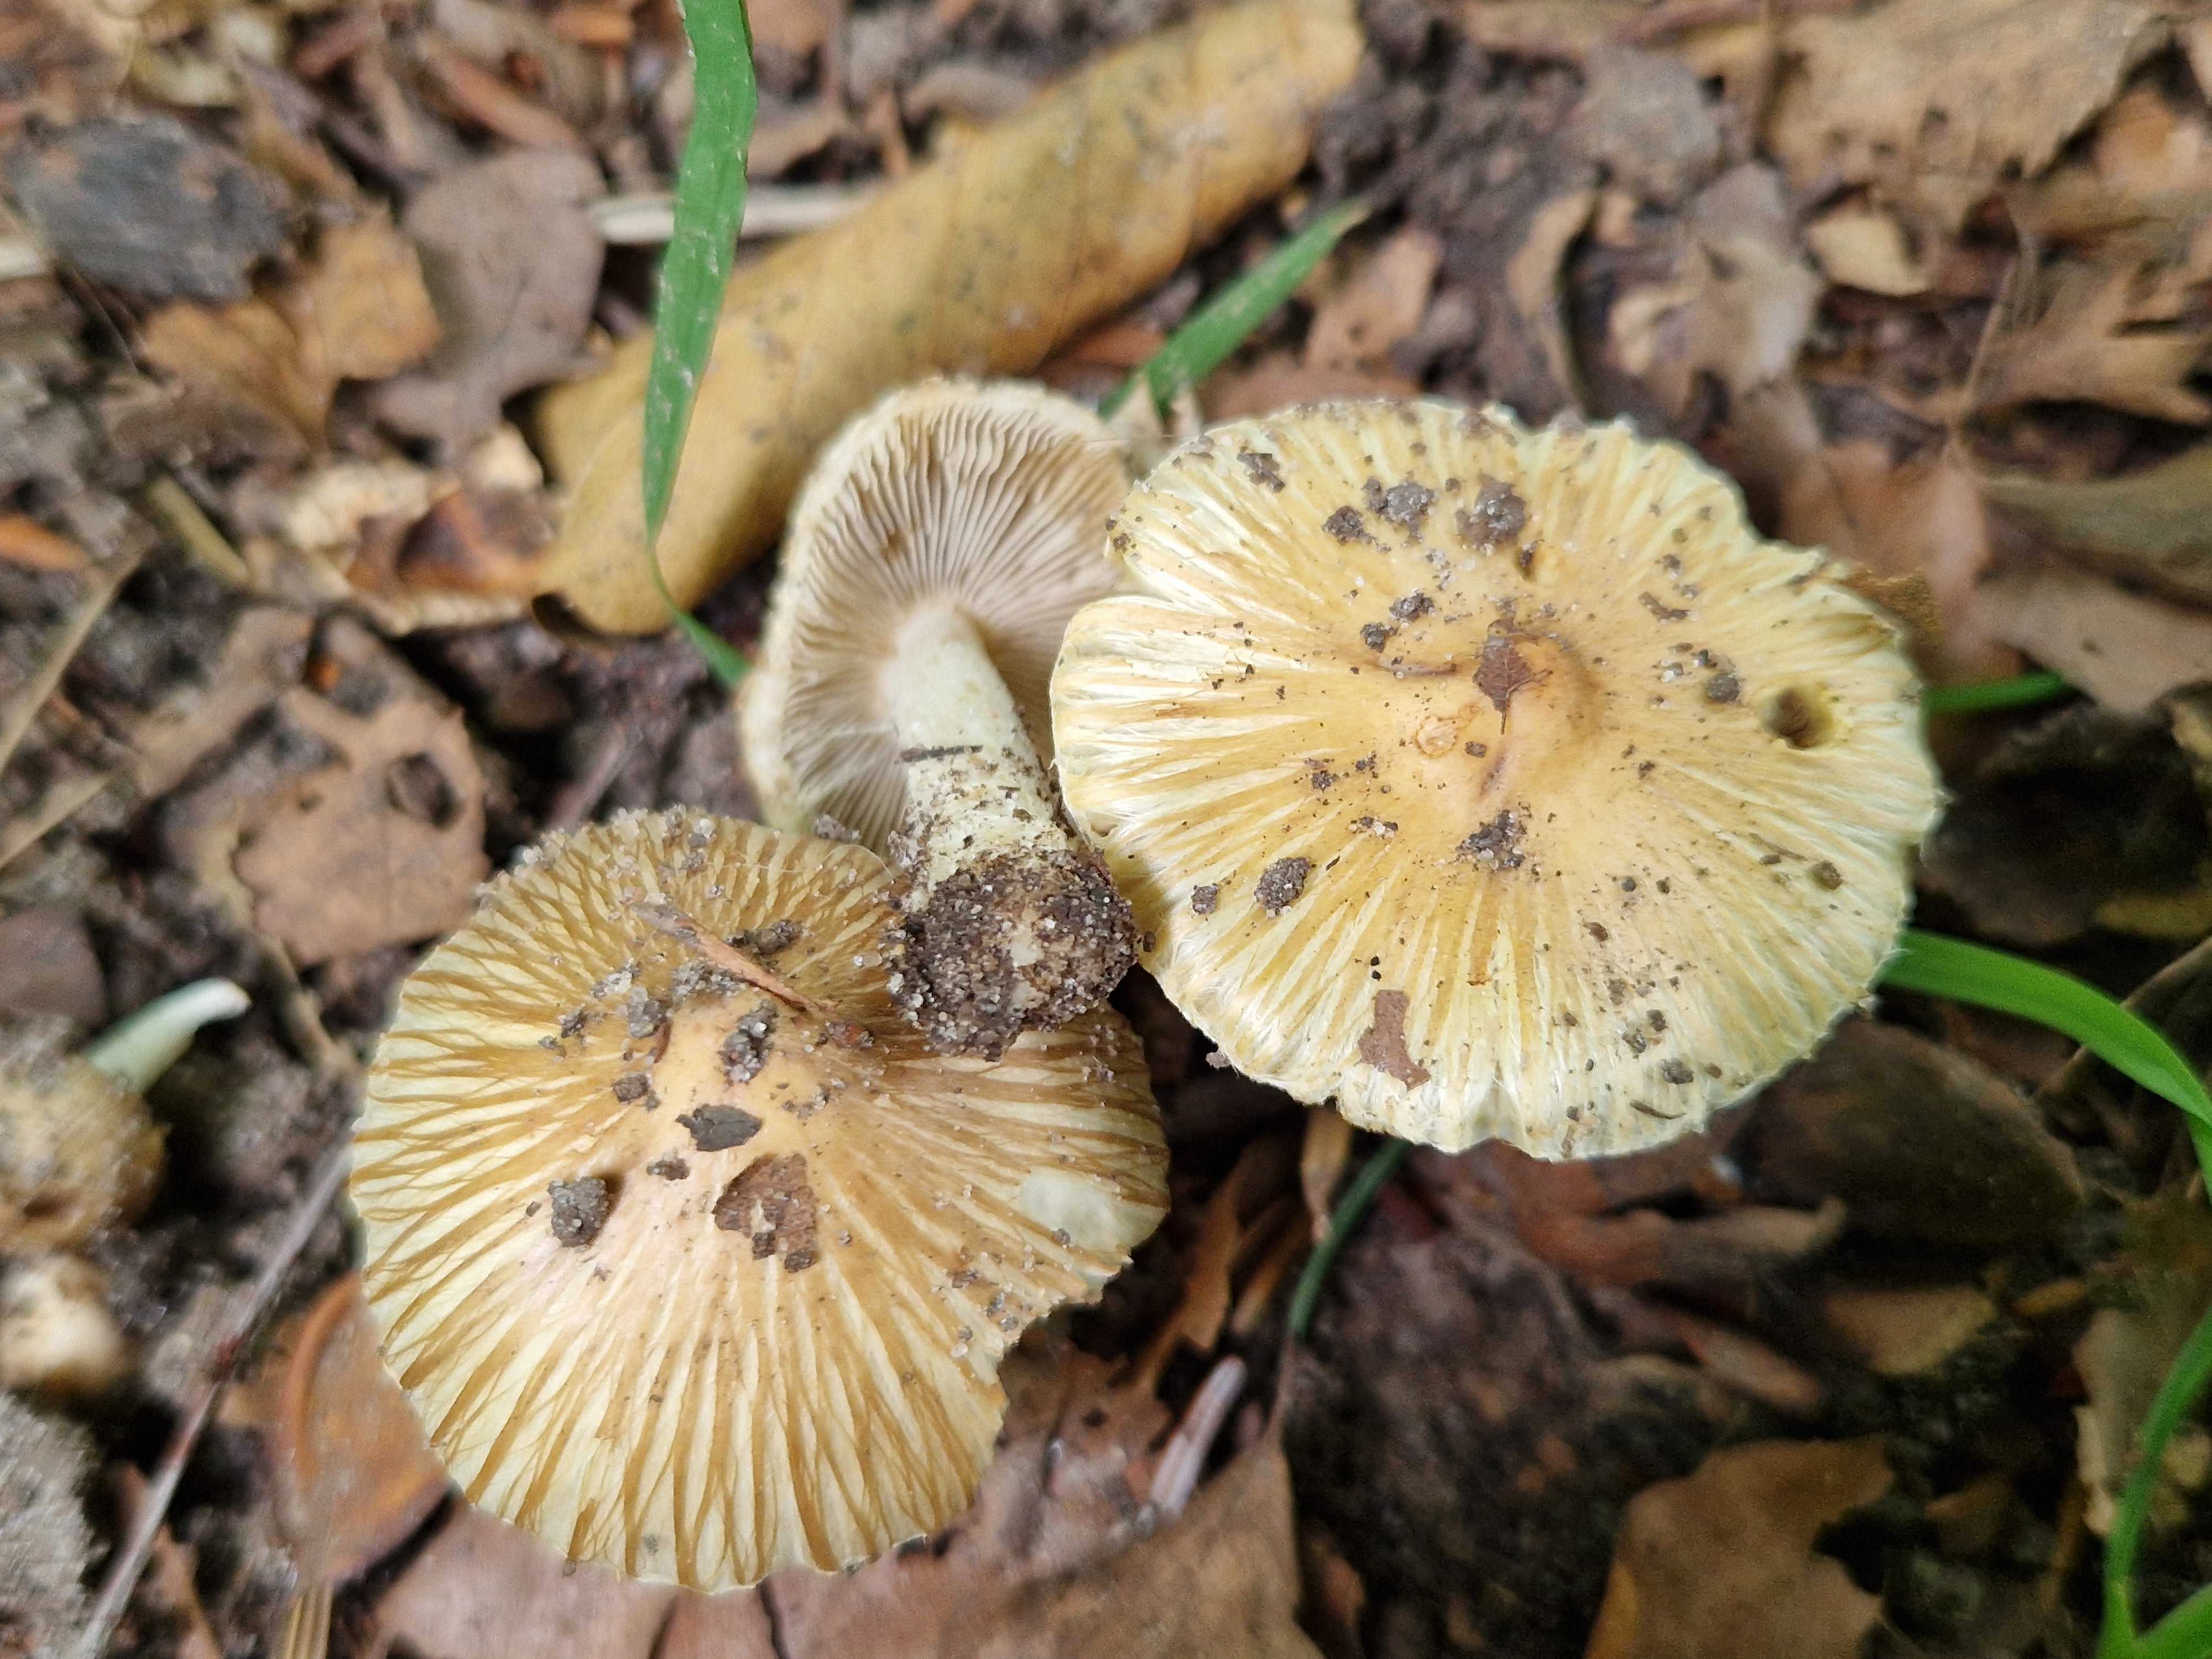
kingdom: Fungi
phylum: Basidiomycota
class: Agaricomycetes
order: Agaricales
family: Inocybaceae
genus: Pseudosperma
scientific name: Pseudosperma rimosum
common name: gulbladet trævlhat
